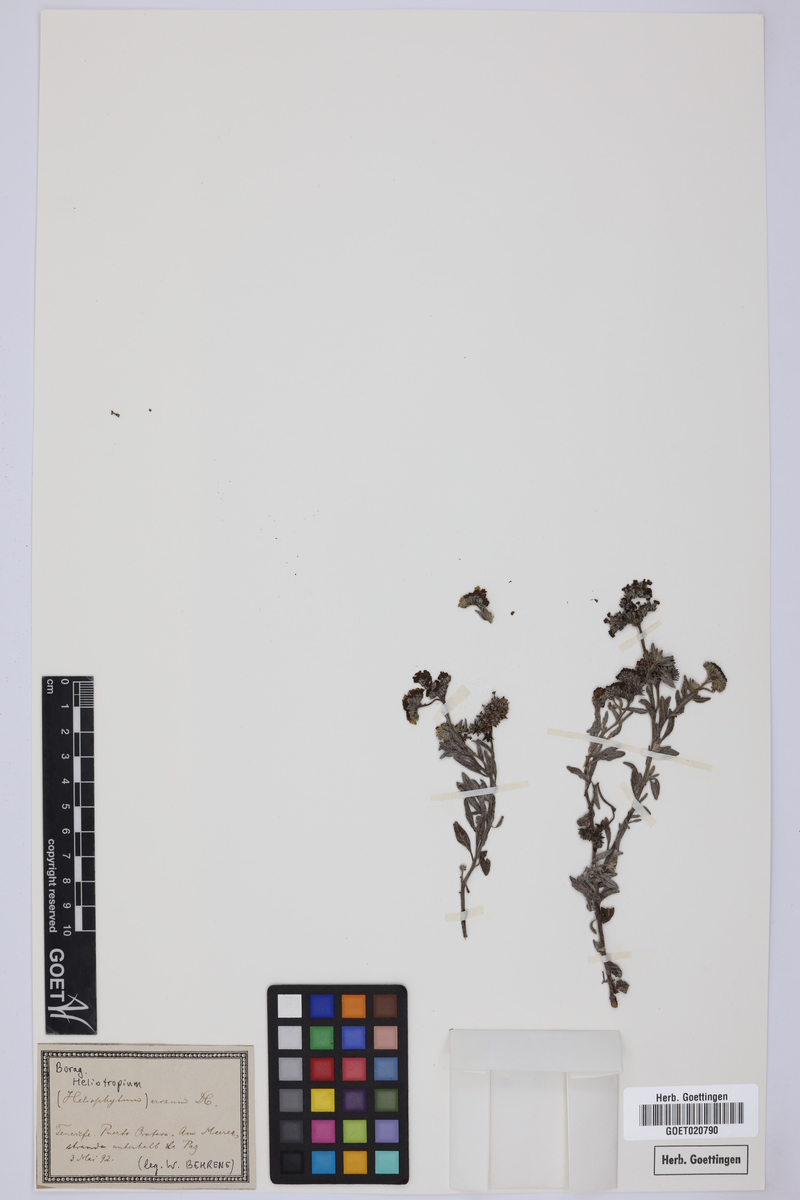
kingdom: Plantae
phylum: Tracheophyta
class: Magnoliopsida
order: Boraginales
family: Heliotropiaceae
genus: Heliotropium
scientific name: Heliotropium crispum
